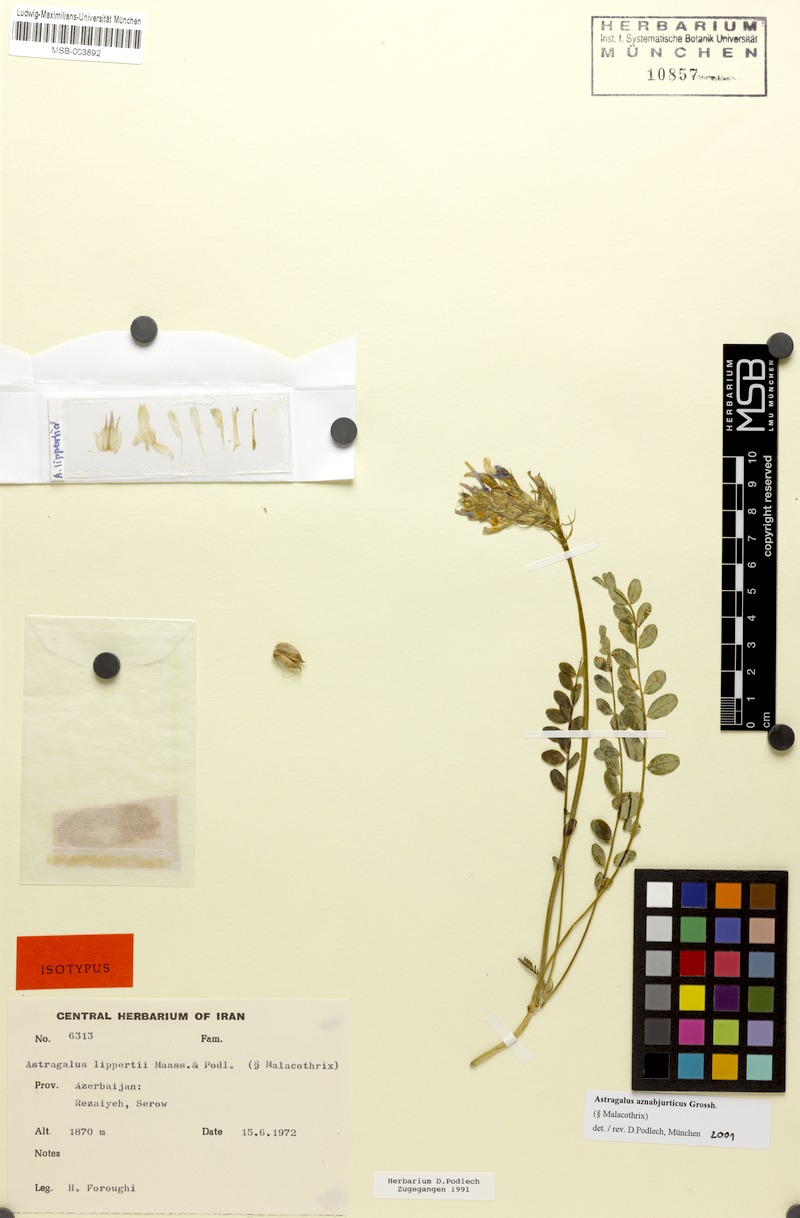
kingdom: Plantae
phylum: Tracheophyta
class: Magnoliopsida
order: Fabales
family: Fabaceae
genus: Astragalus
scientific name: Astragalus aznabjurticus
